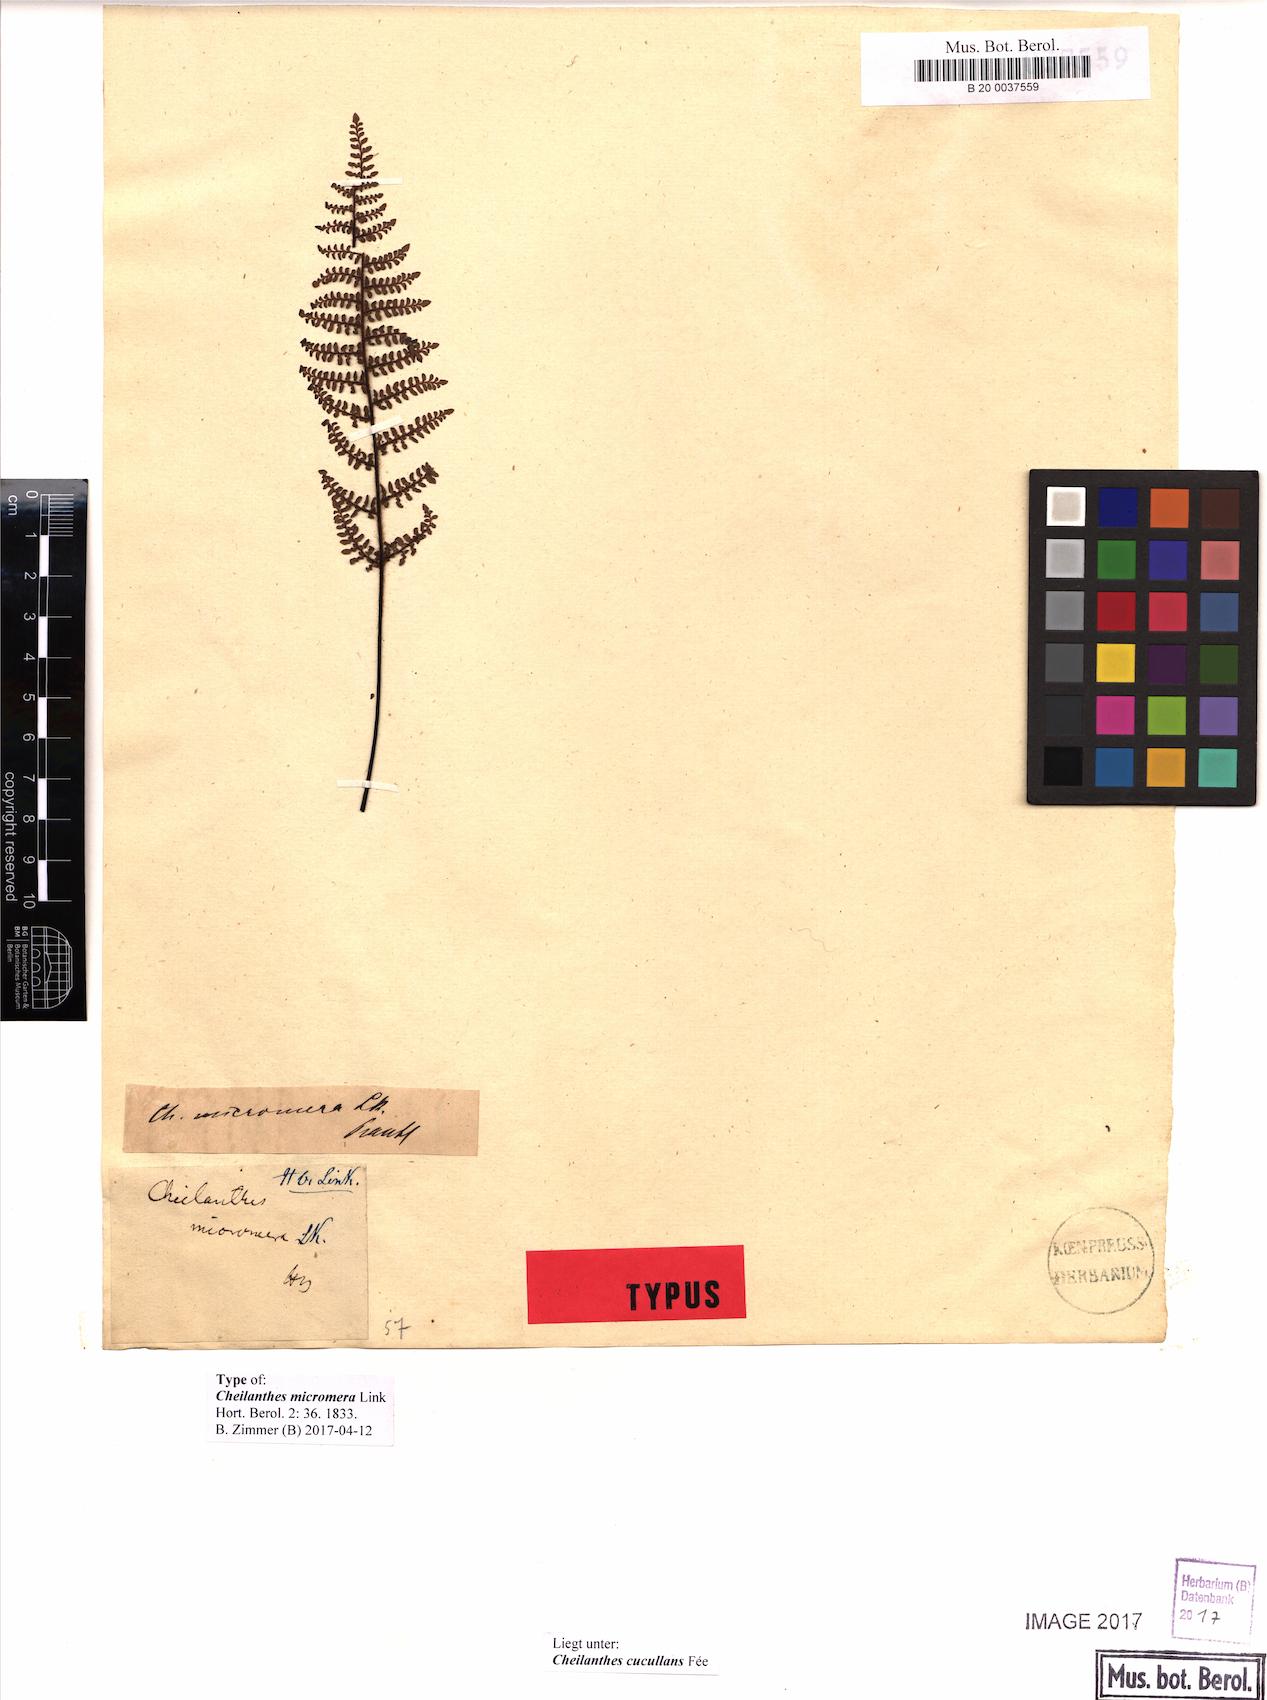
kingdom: Plantae
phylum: Tracheophyta
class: Polypodiopsida
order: Polypodiales
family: Pteridaceae
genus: Myriopteris
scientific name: Myriopteris cucullans
